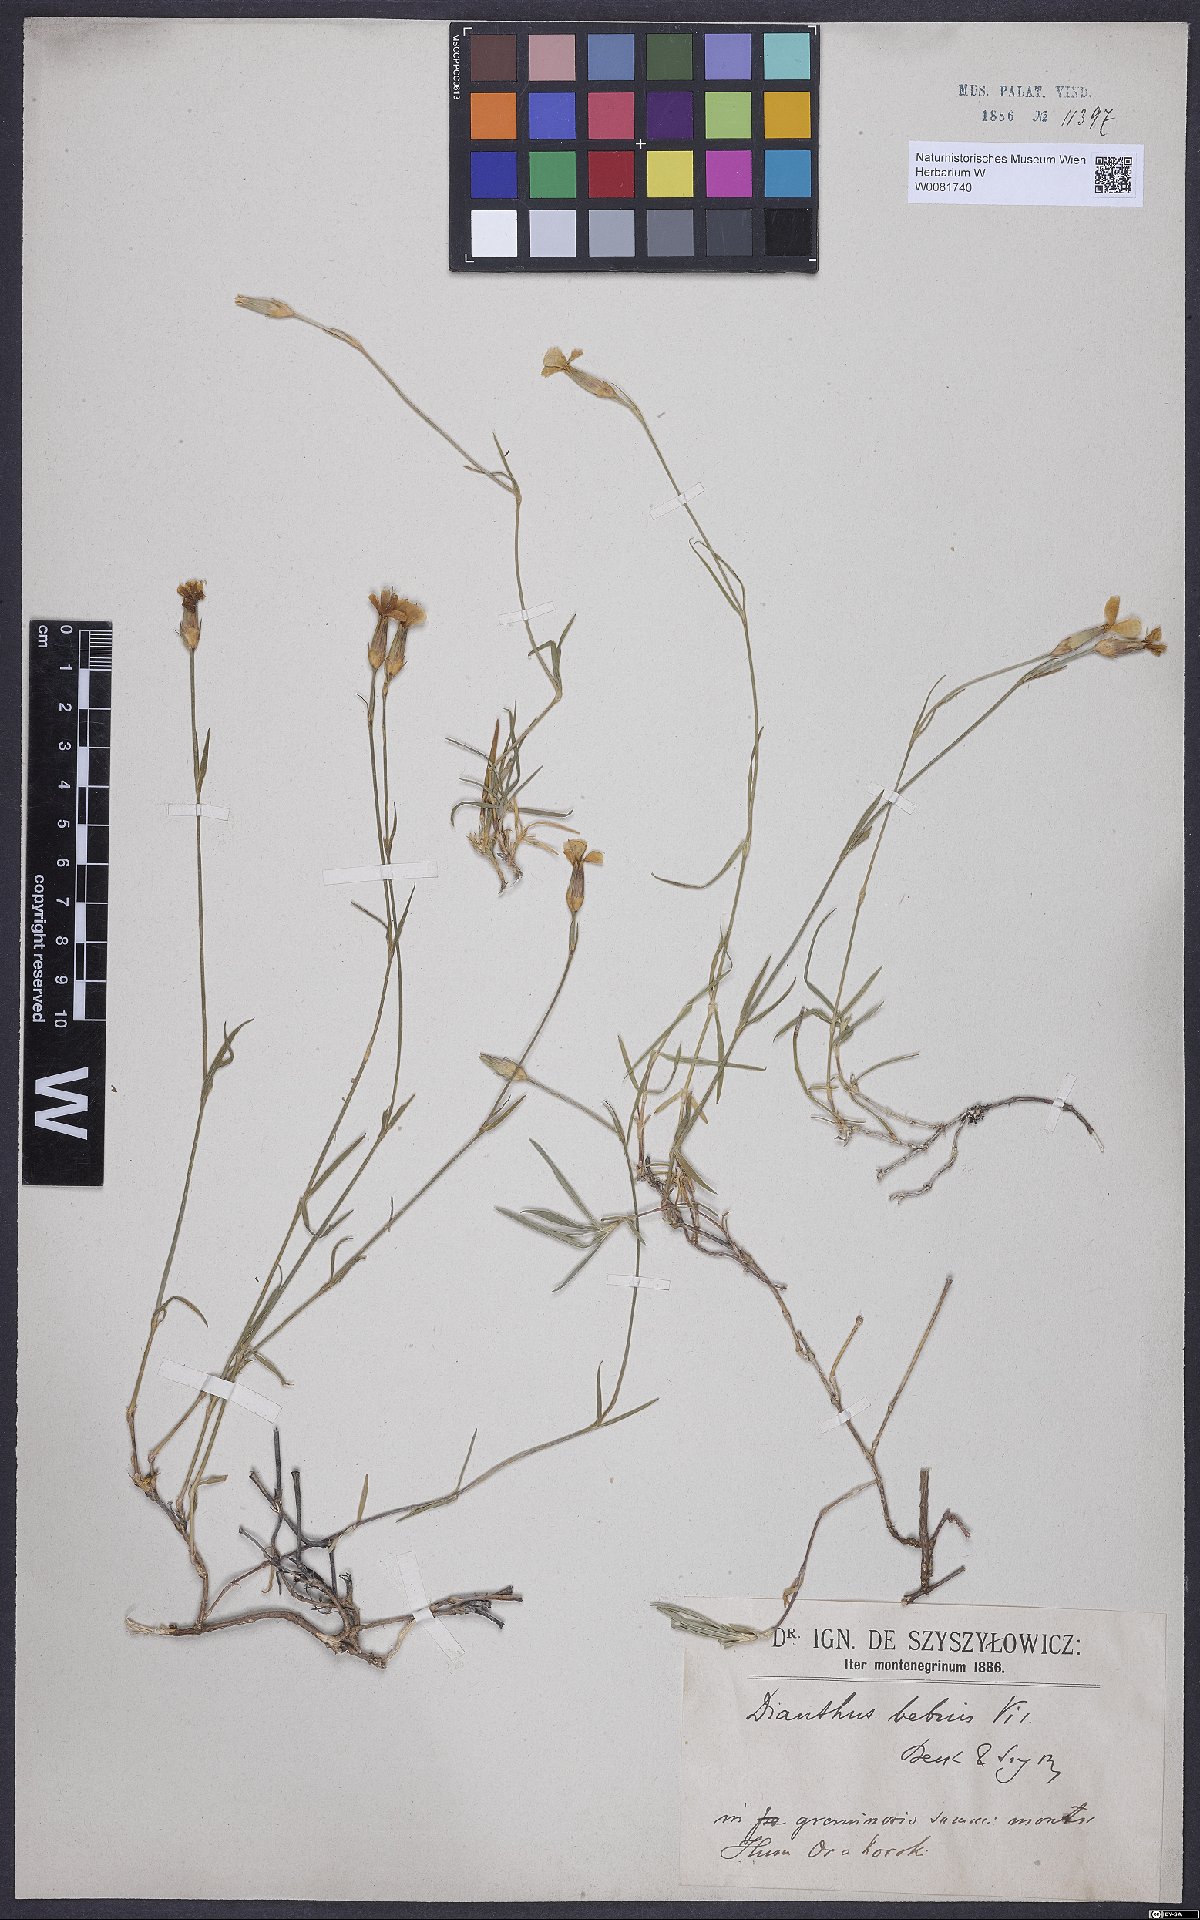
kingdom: Plantae
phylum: Tracheophyta
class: Magnoliopsida
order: Caryophyllales
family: Caryophyllaceae
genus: Dianthus
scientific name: Dianthus petraeus
